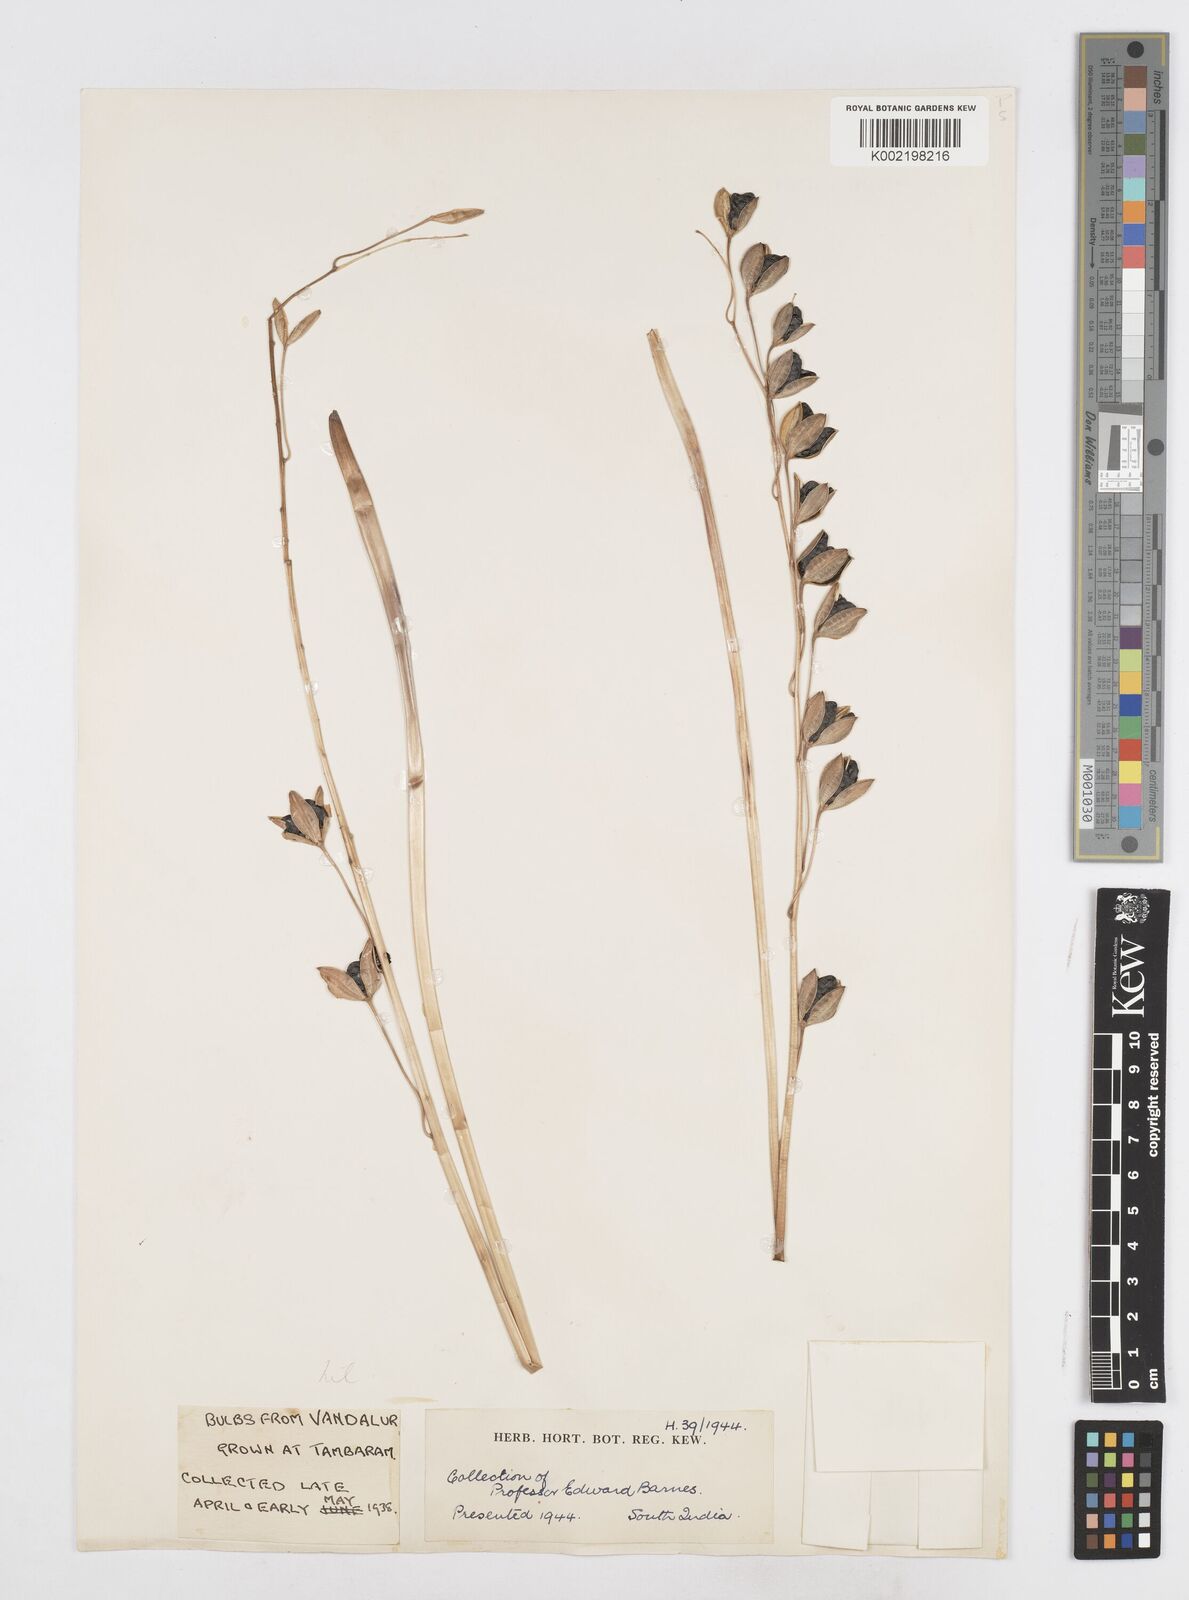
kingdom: Plantae
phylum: Tracheophyta
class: Liliopsida
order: Asparagales
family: Asparagaceae
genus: Drimia
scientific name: Drimia indica
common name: Indian-squill
